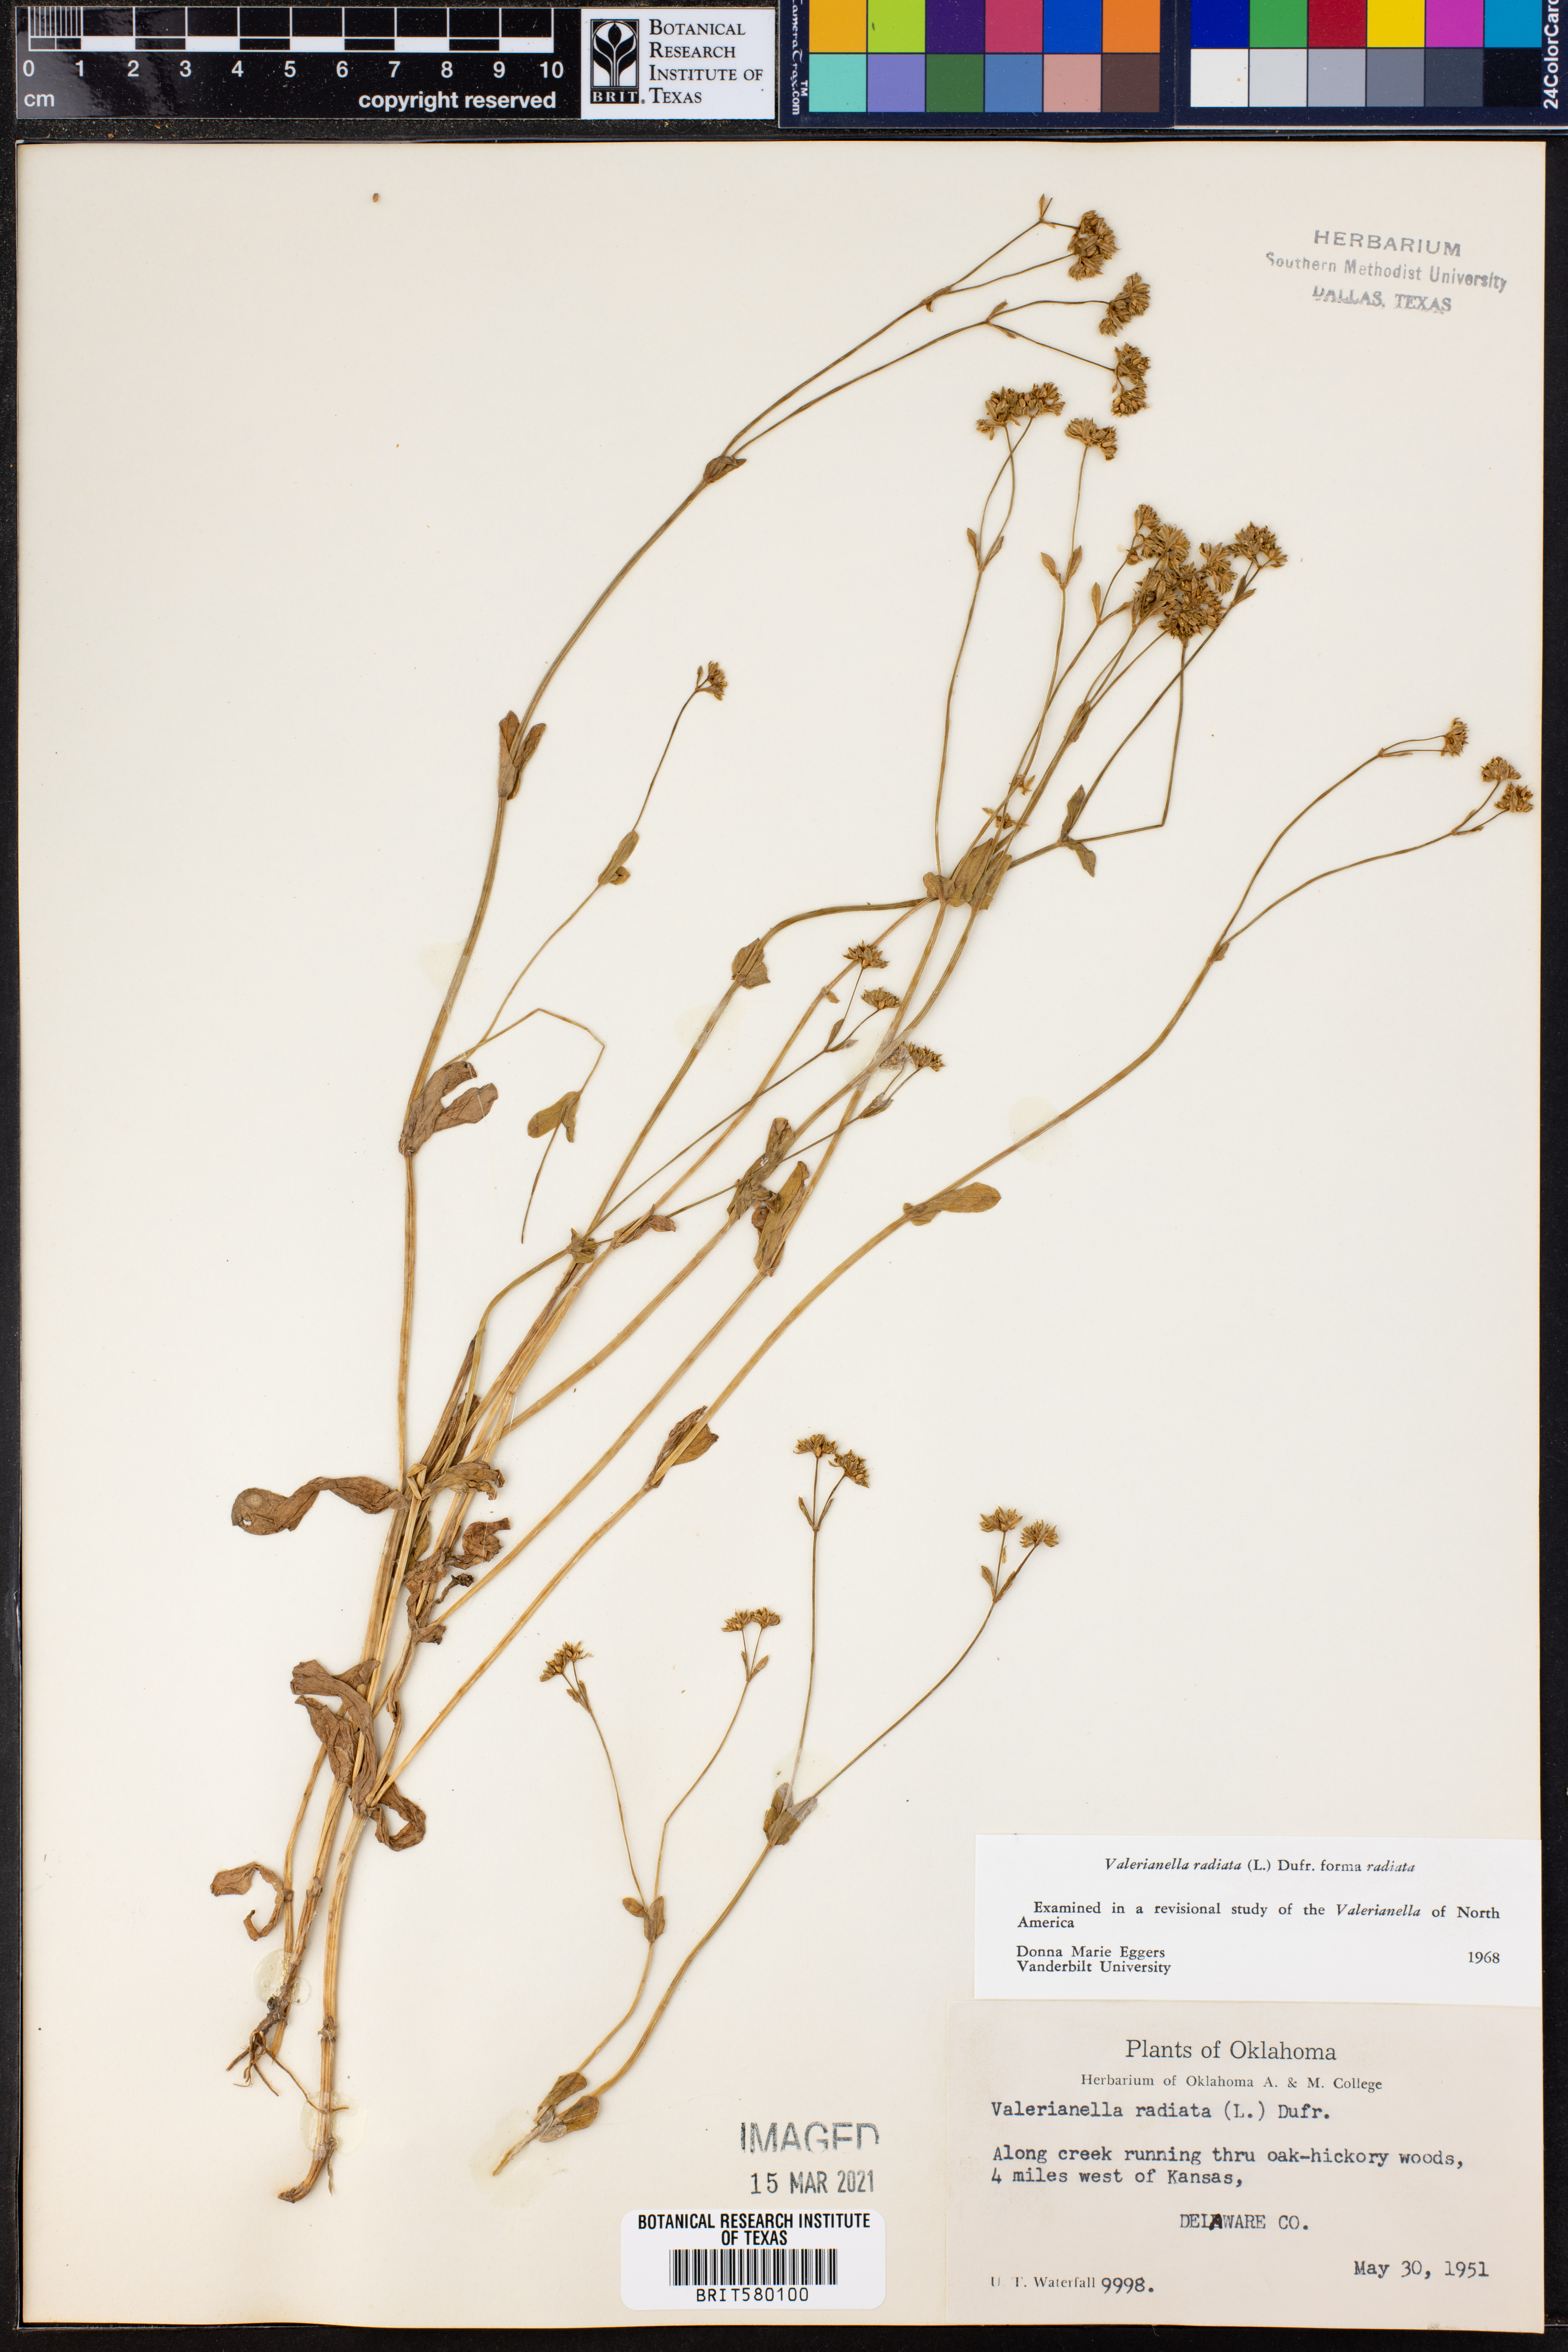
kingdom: Plantae
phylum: Tracheophyta
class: Magnoliopsida
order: Dipsacales
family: Caprifoliaceae
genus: Valerianella
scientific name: Valerianella radiata
